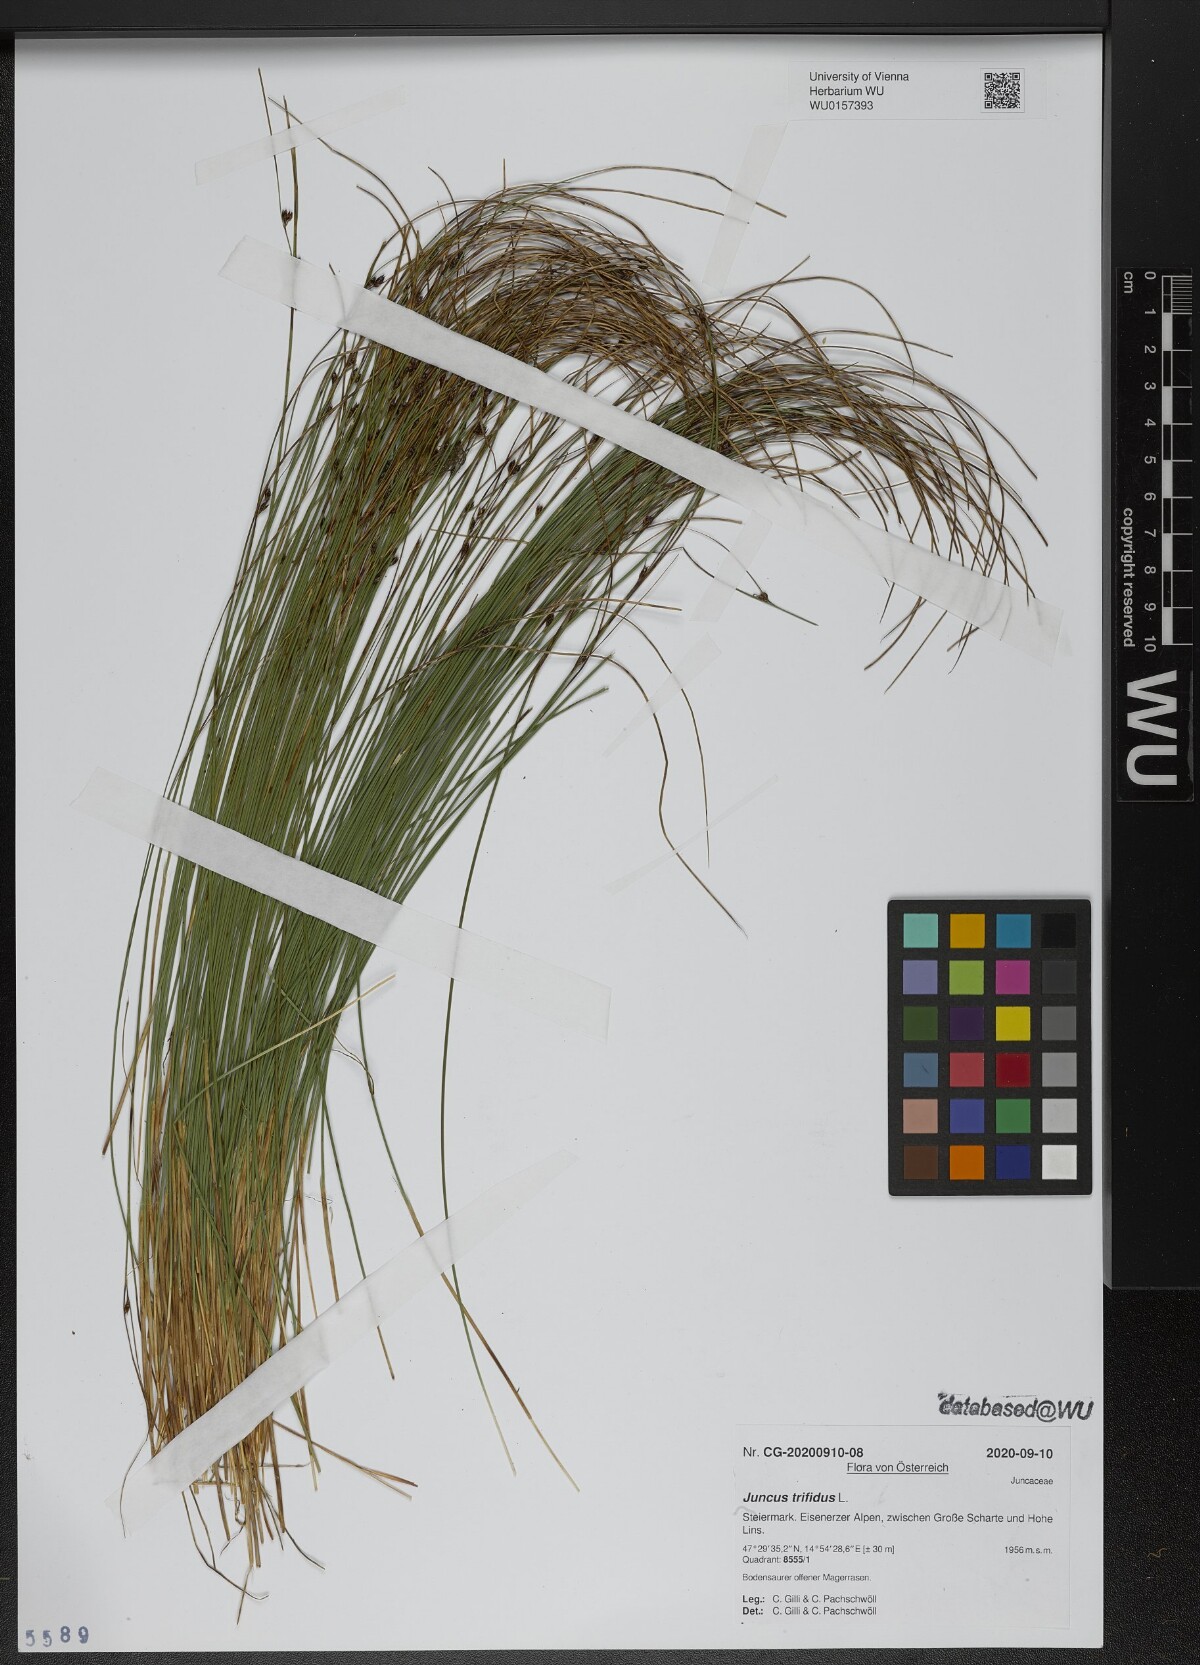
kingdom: Plantae
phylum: Tracheophyta
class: Liliopsida
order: Poales
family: Juncaceae
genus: Oreojuncus
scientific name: Oreojuncus trifidus
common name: Highland rush
